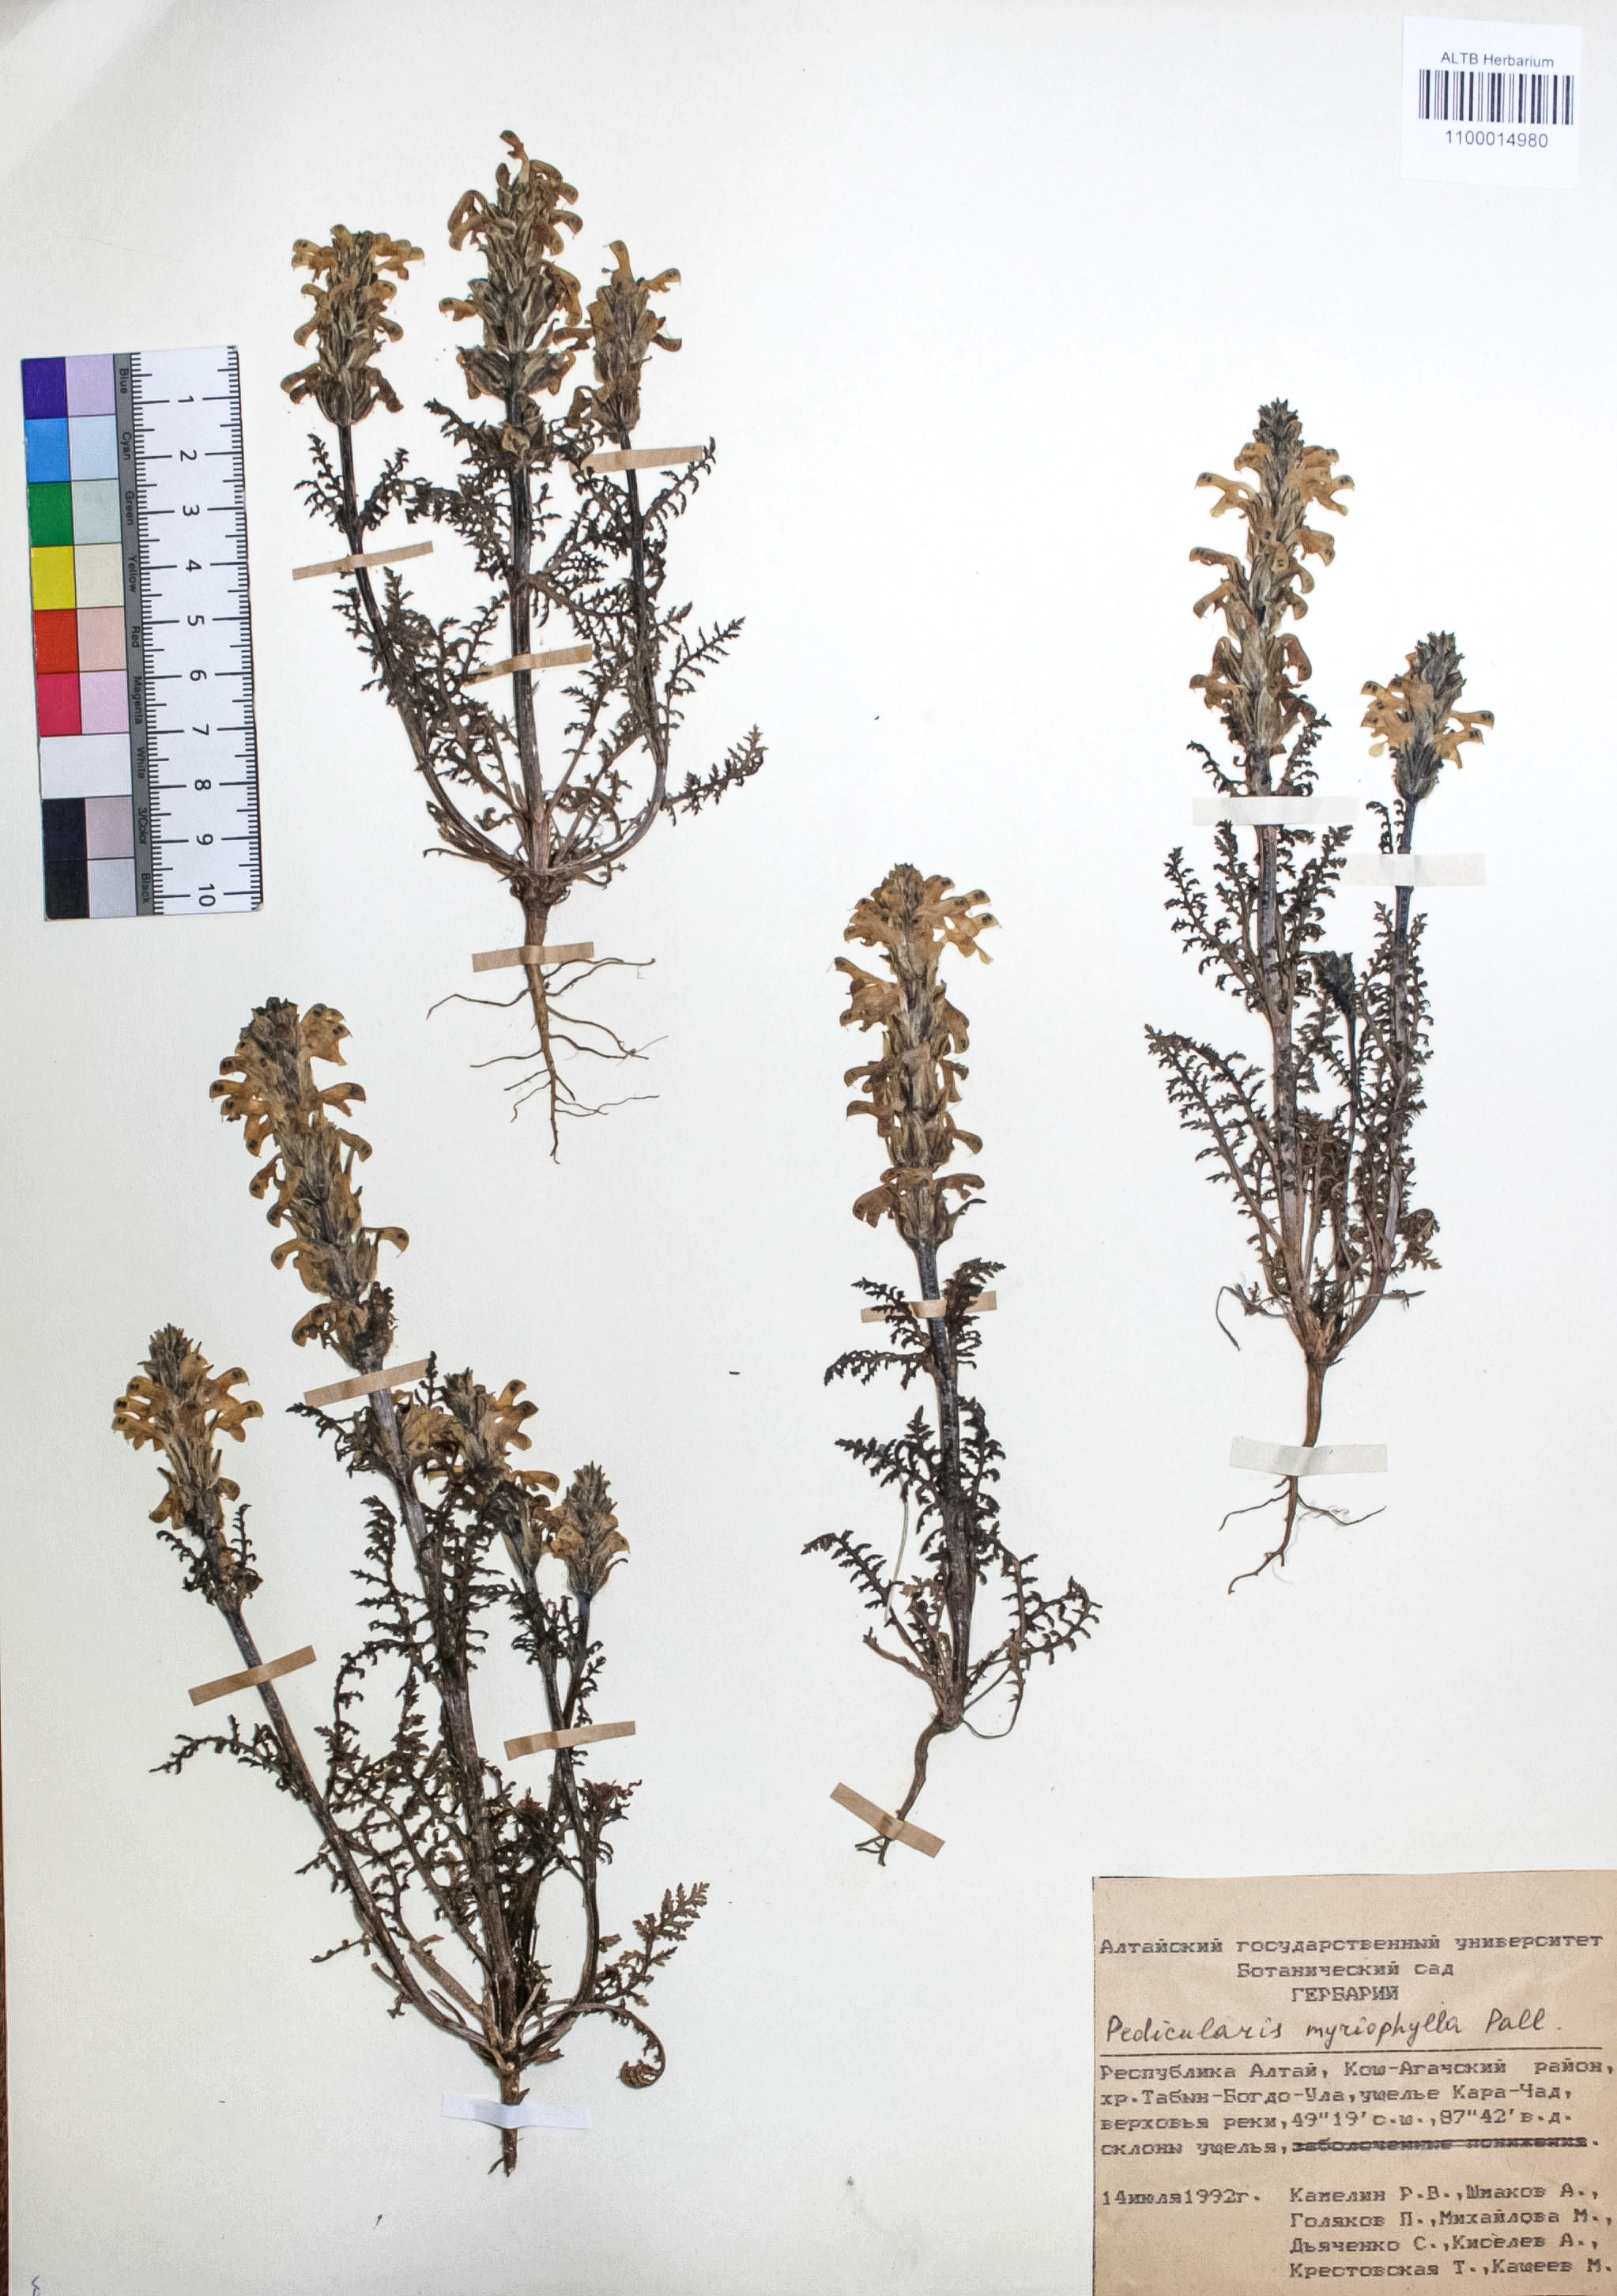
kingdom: Plantae
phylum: Tracheophyta
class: Magnoliopsida
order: Lamiales
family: Orobanchaceae
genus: Pedicularis
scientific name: Pedicularis myriophylla
